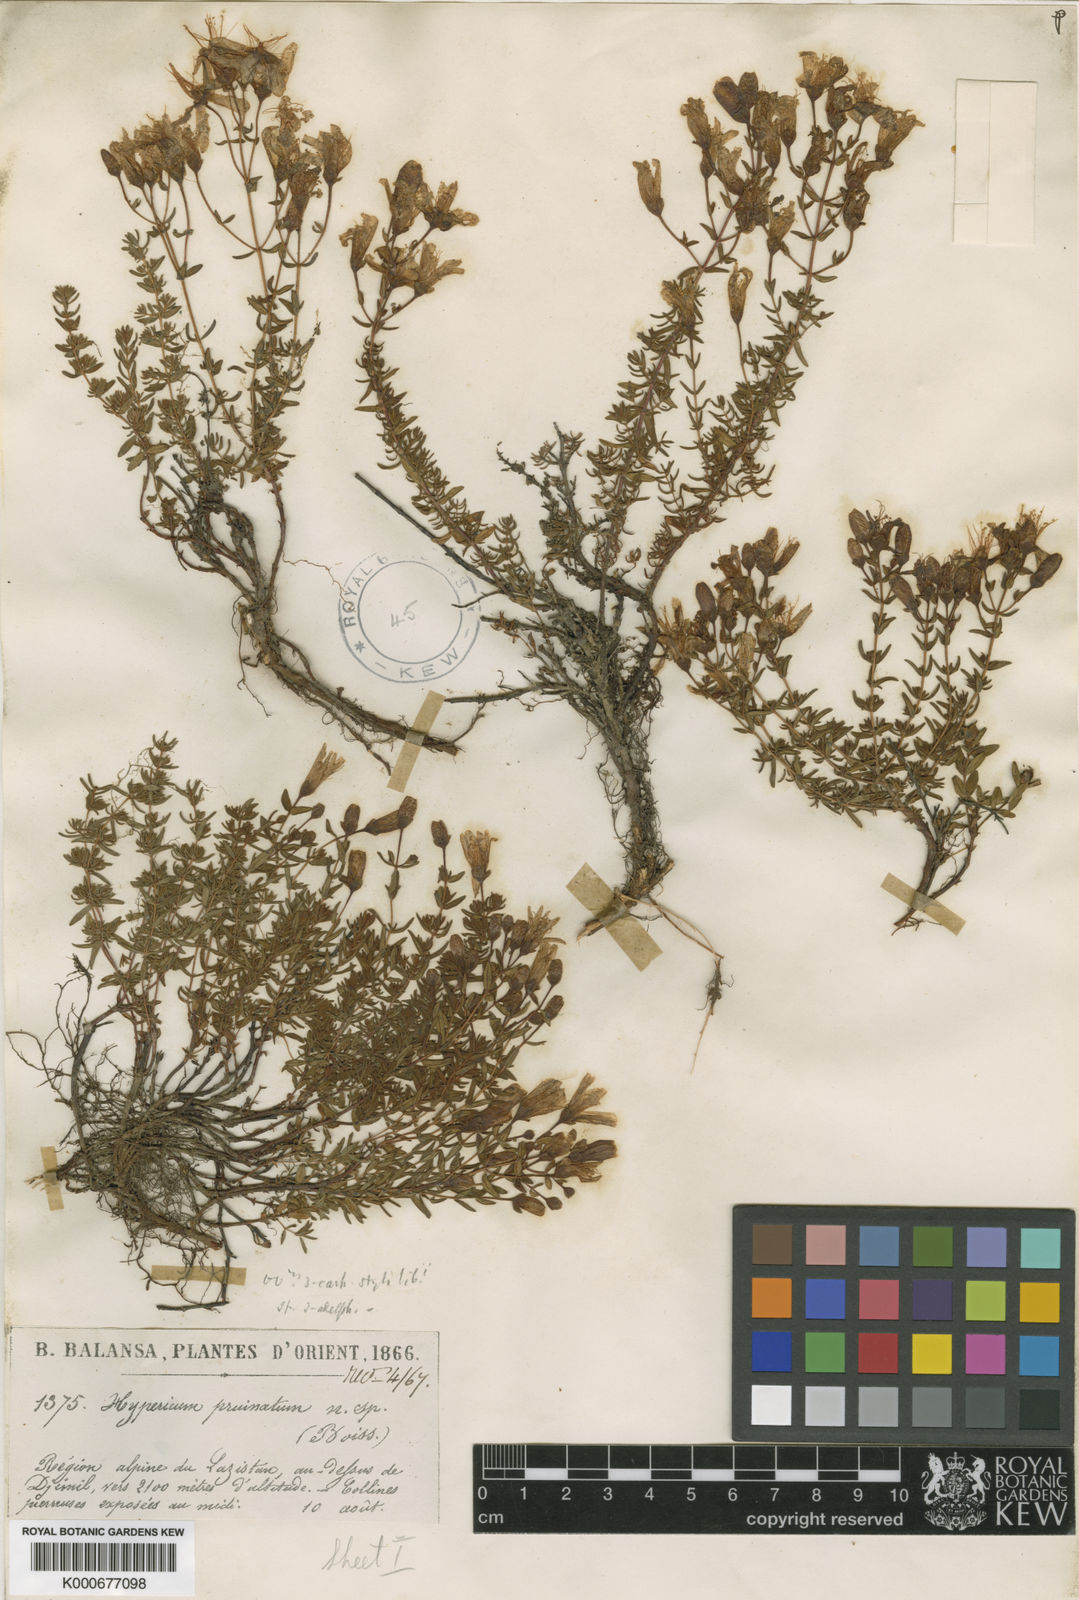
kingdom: Plantae
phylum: Tracheophyta
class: Magnoliopsida
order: Malpighiales
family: Hypericaceae
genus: Hypericum
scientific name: Hypericum pruinatum
